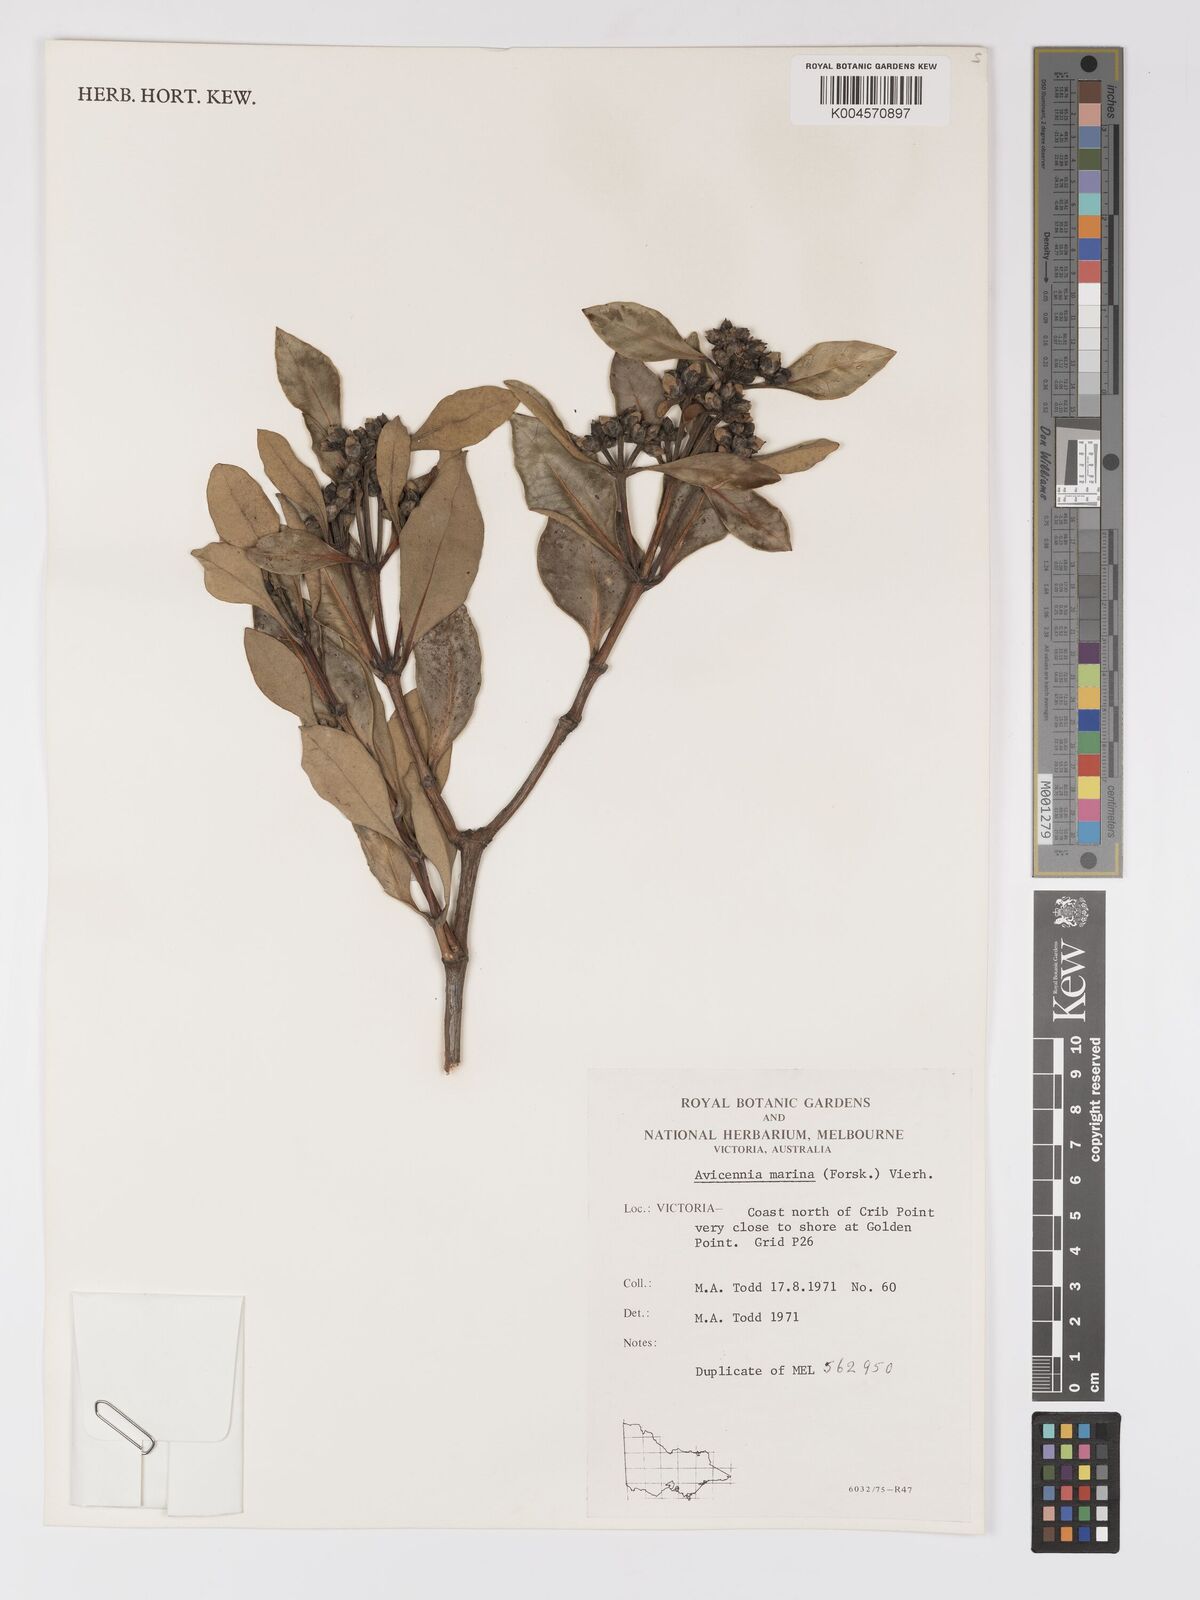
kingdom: Plantae
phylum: Tracheophyta
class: Magnoliopsida
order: Lamiales
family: Acanthaceae
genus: Avicennia
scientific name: Avicennia marina
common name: Gray mangrove
